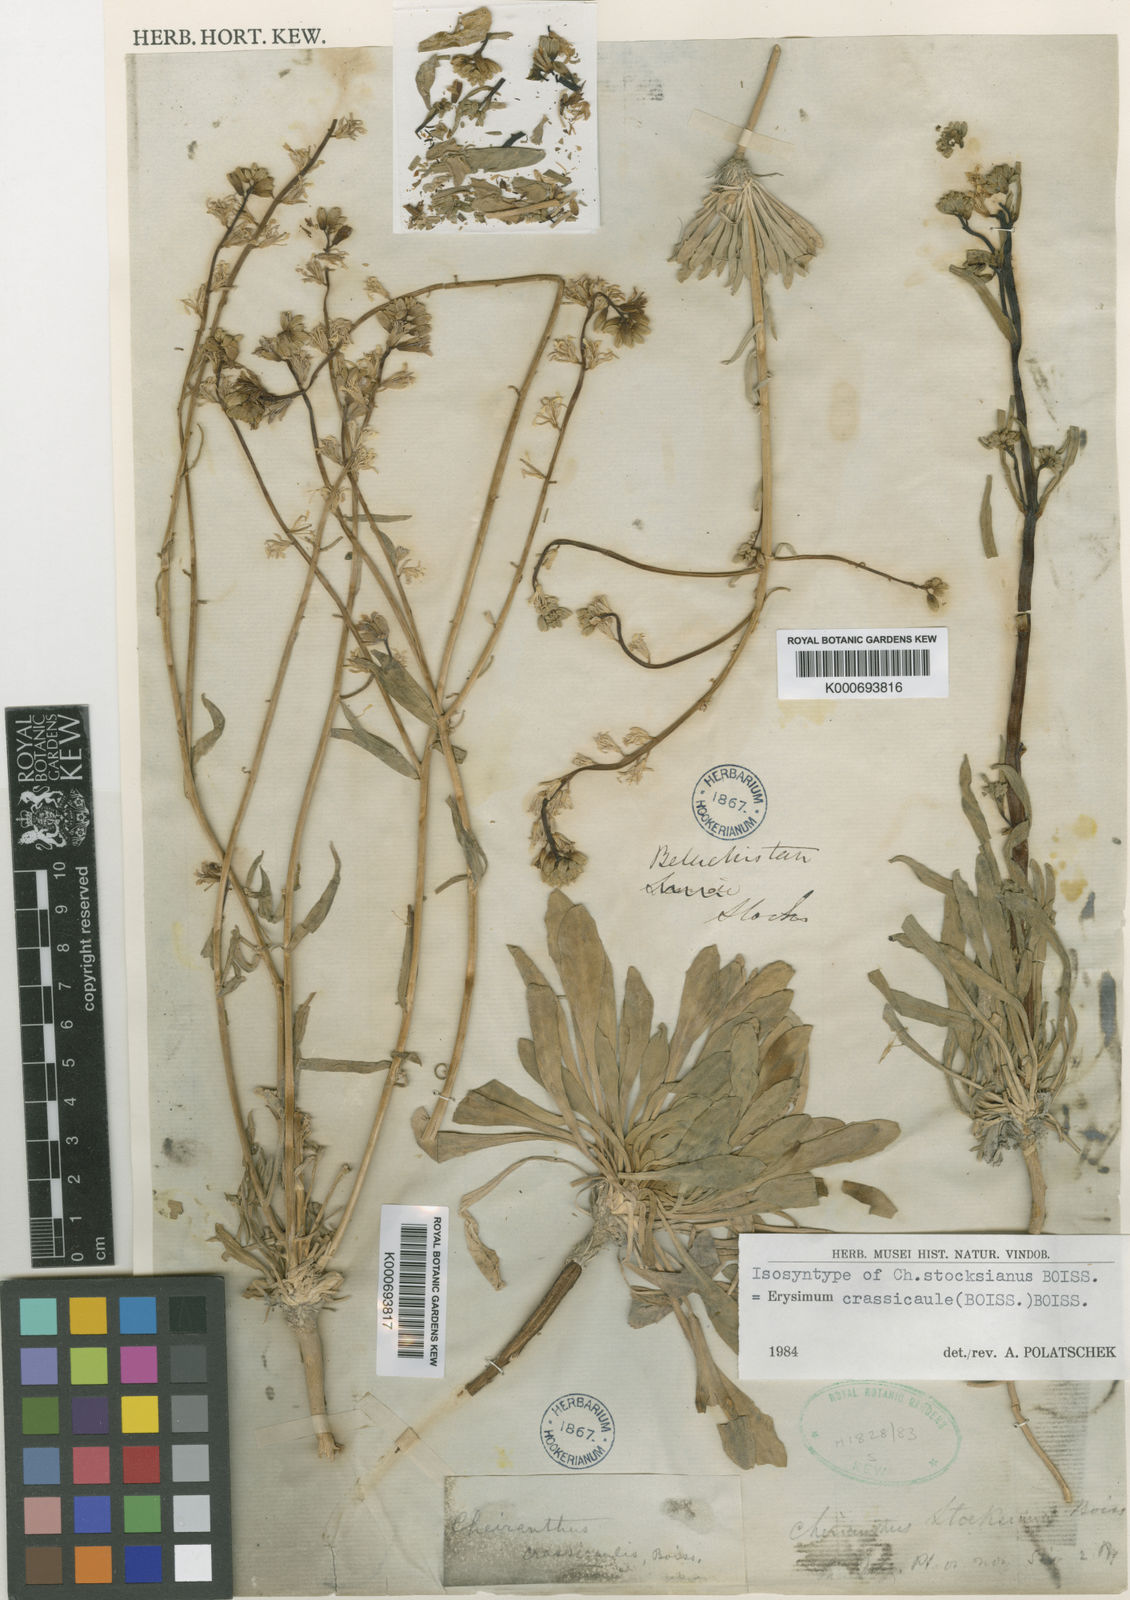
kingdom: Plantae
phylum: Tracheophyta
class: Magnoliopsida
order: Brassicales
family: Brassicaceae
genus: Erysimum
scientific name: Erysimum crassicaule
